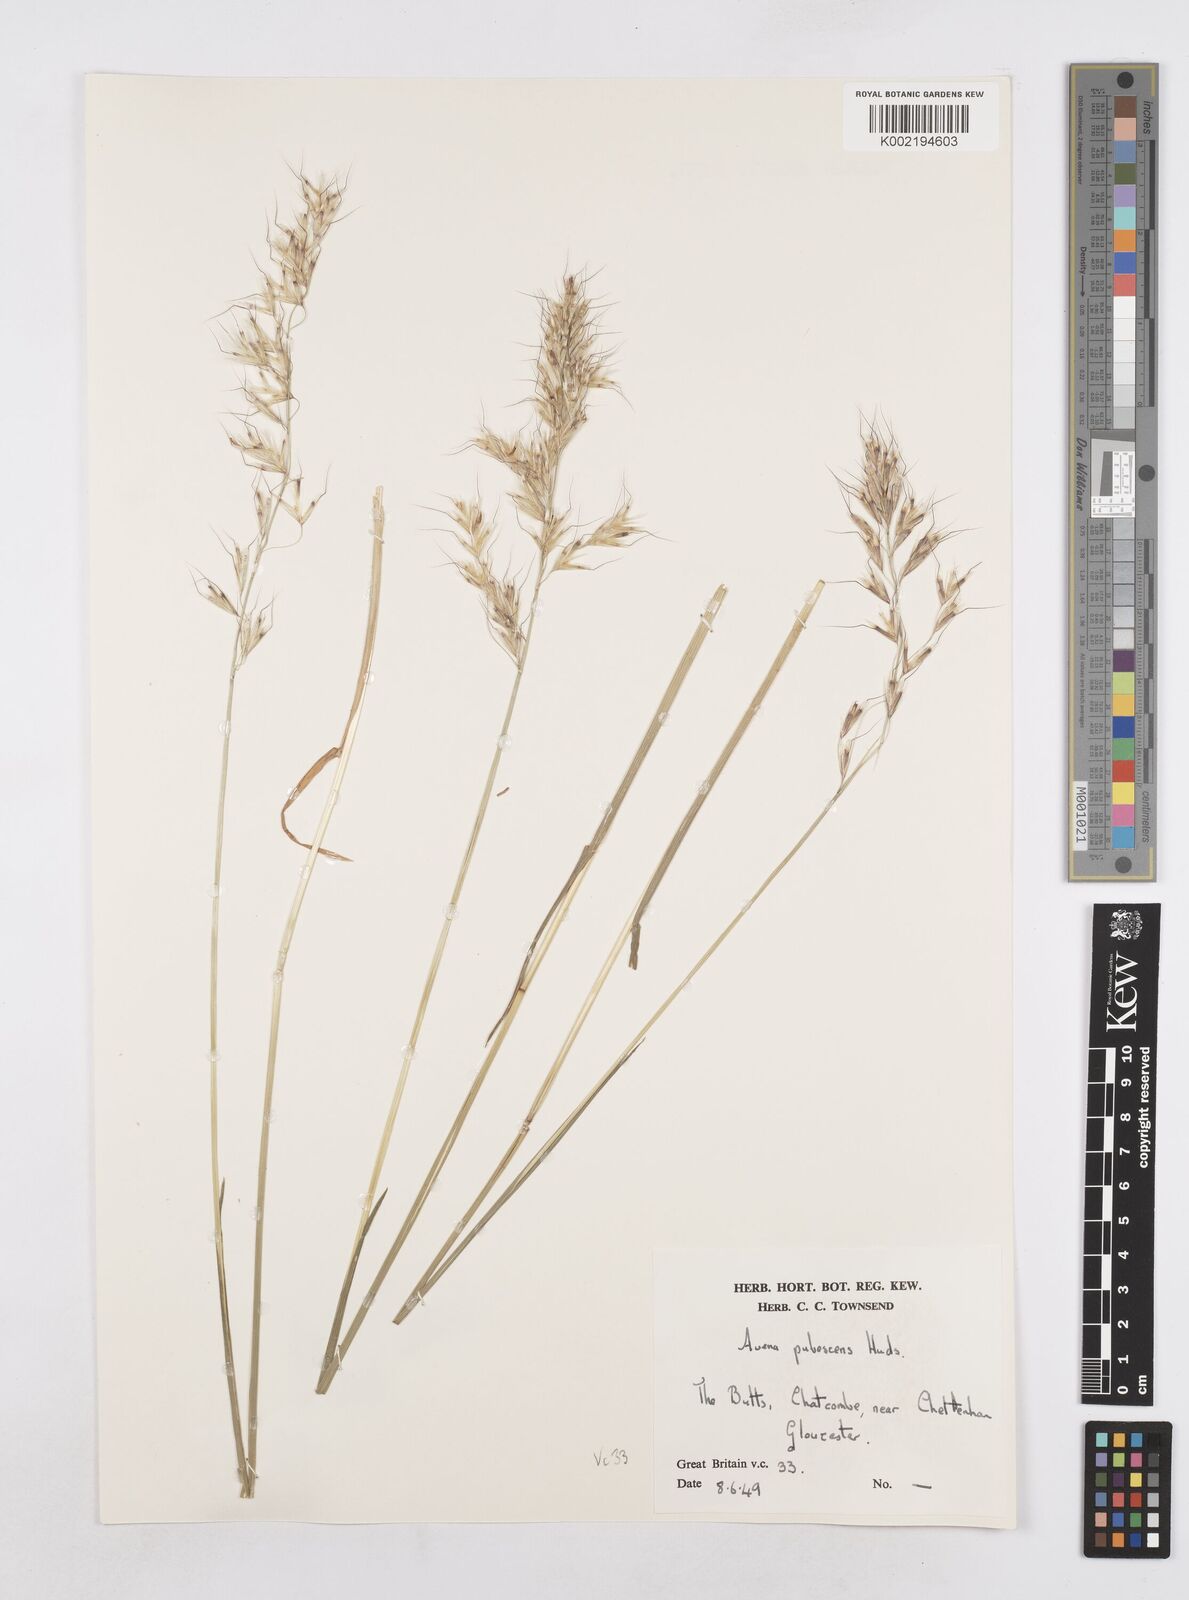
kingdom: Plantae
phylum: Tracheophyta
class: Liliopsida
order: Poales
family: Poaceae
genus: Avenula
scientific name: Avenula pubescens
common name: Downy alpine oatgrass
